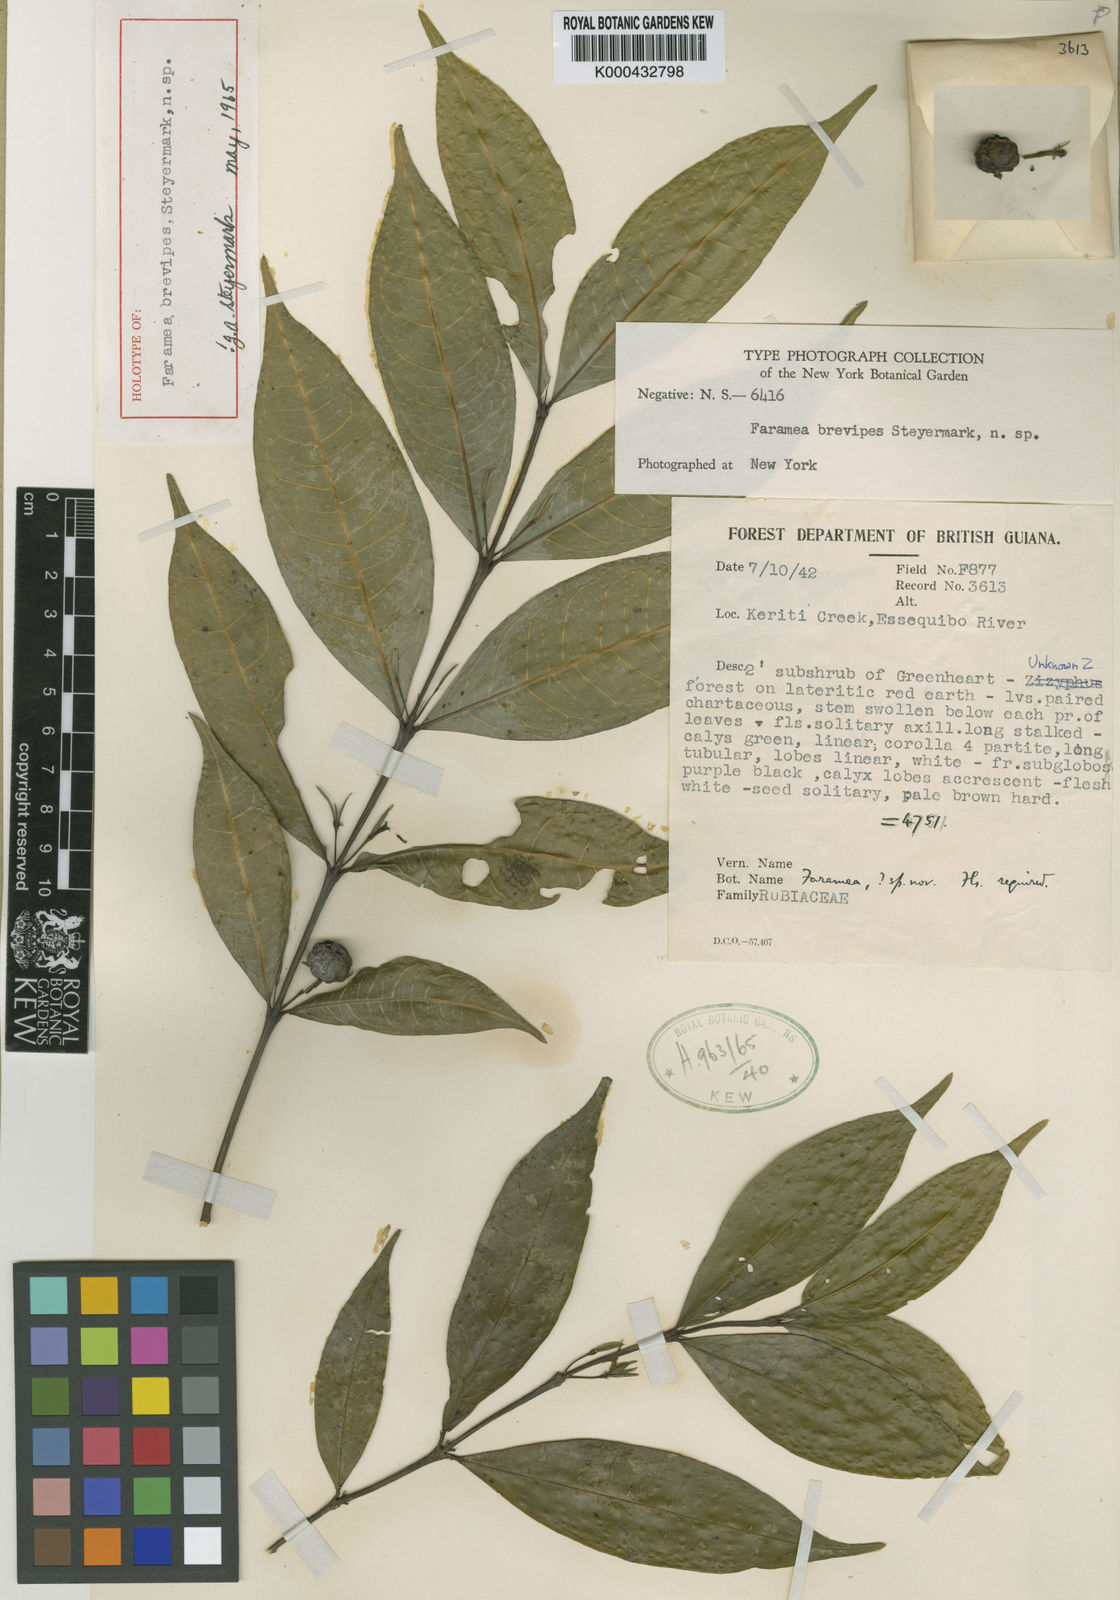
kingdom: Plantae
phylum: Tracheophyta
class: Magnoliopsida
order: Gentianales
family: Rubiaceae
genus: Faramea
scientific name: Faramea brevipes
